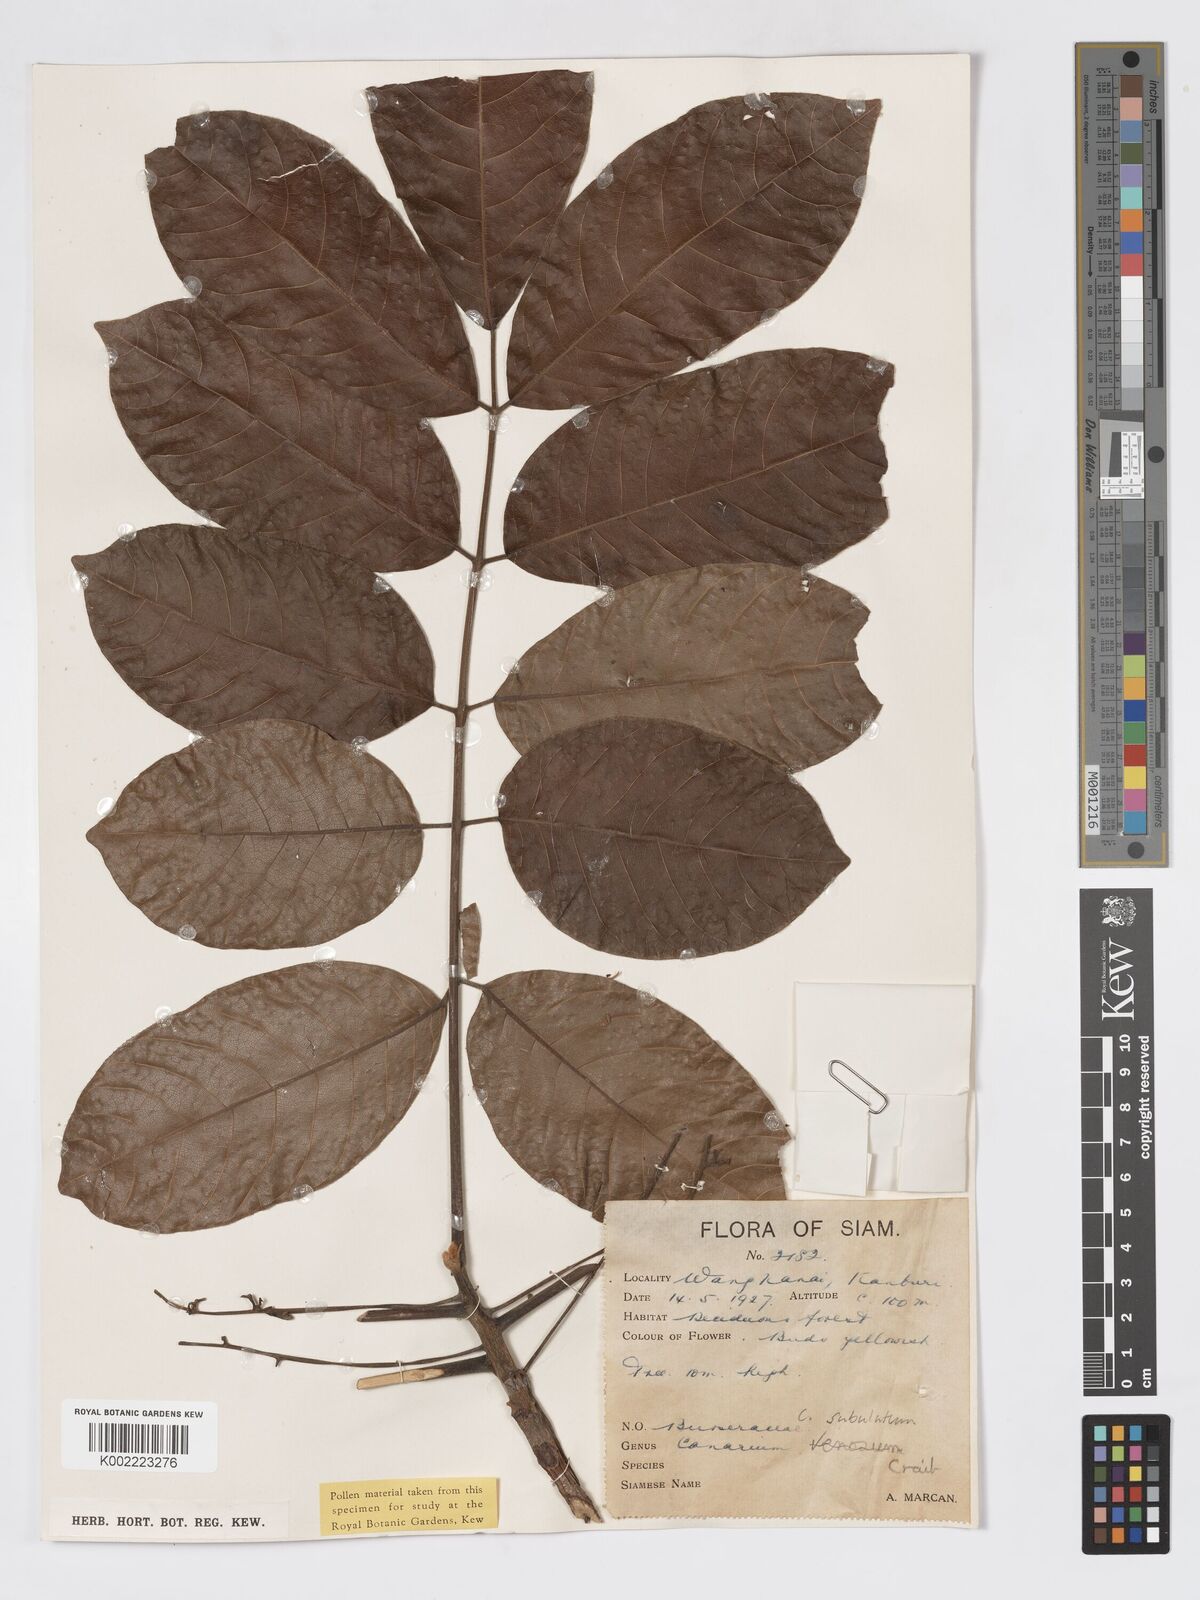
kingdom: Plantae
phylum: Tracheophyta
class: Magnoliopsida
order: Sapindales
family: Burseraceae
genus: Canarium
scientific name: Canarium subulatum
